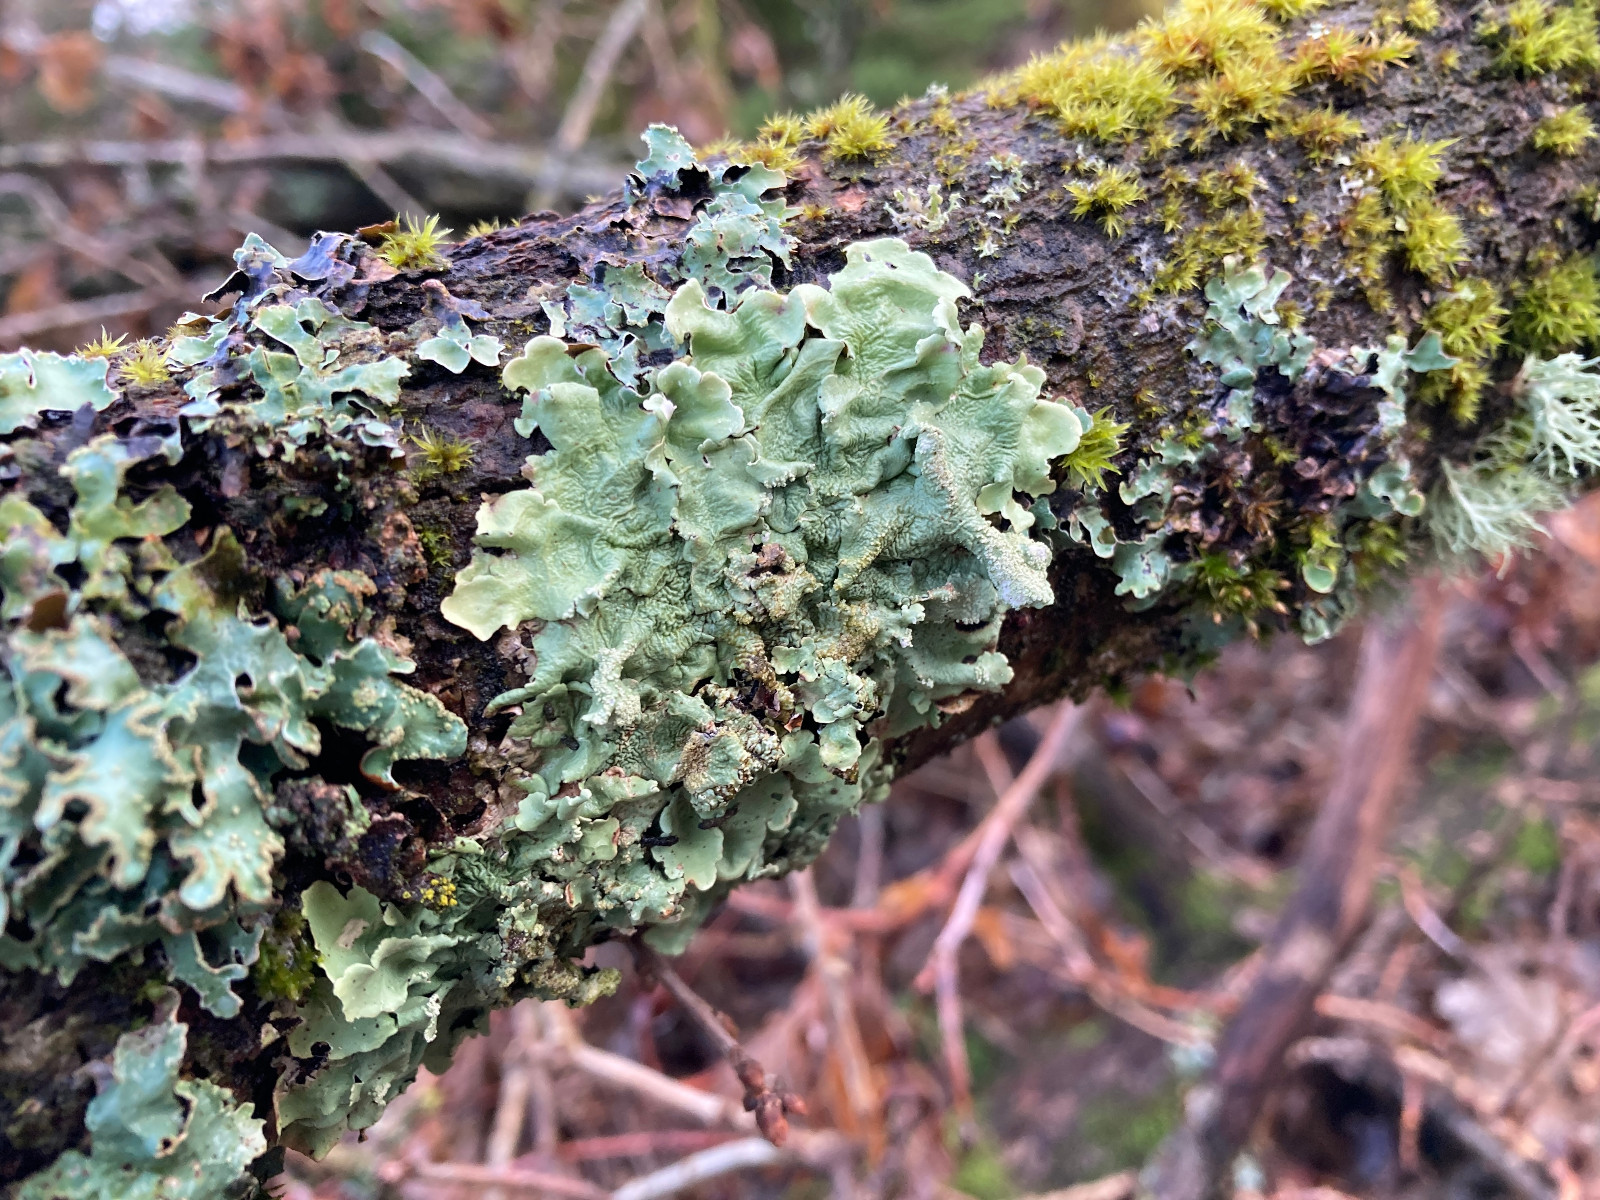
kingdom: Fungi
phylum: Ascomycota
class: Lecanoromycetes
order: Lecanorales
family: Parmeliaceae
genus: Flavoparmelia
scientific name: Flavoparmelia caperata
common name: gulgrøn skållav
